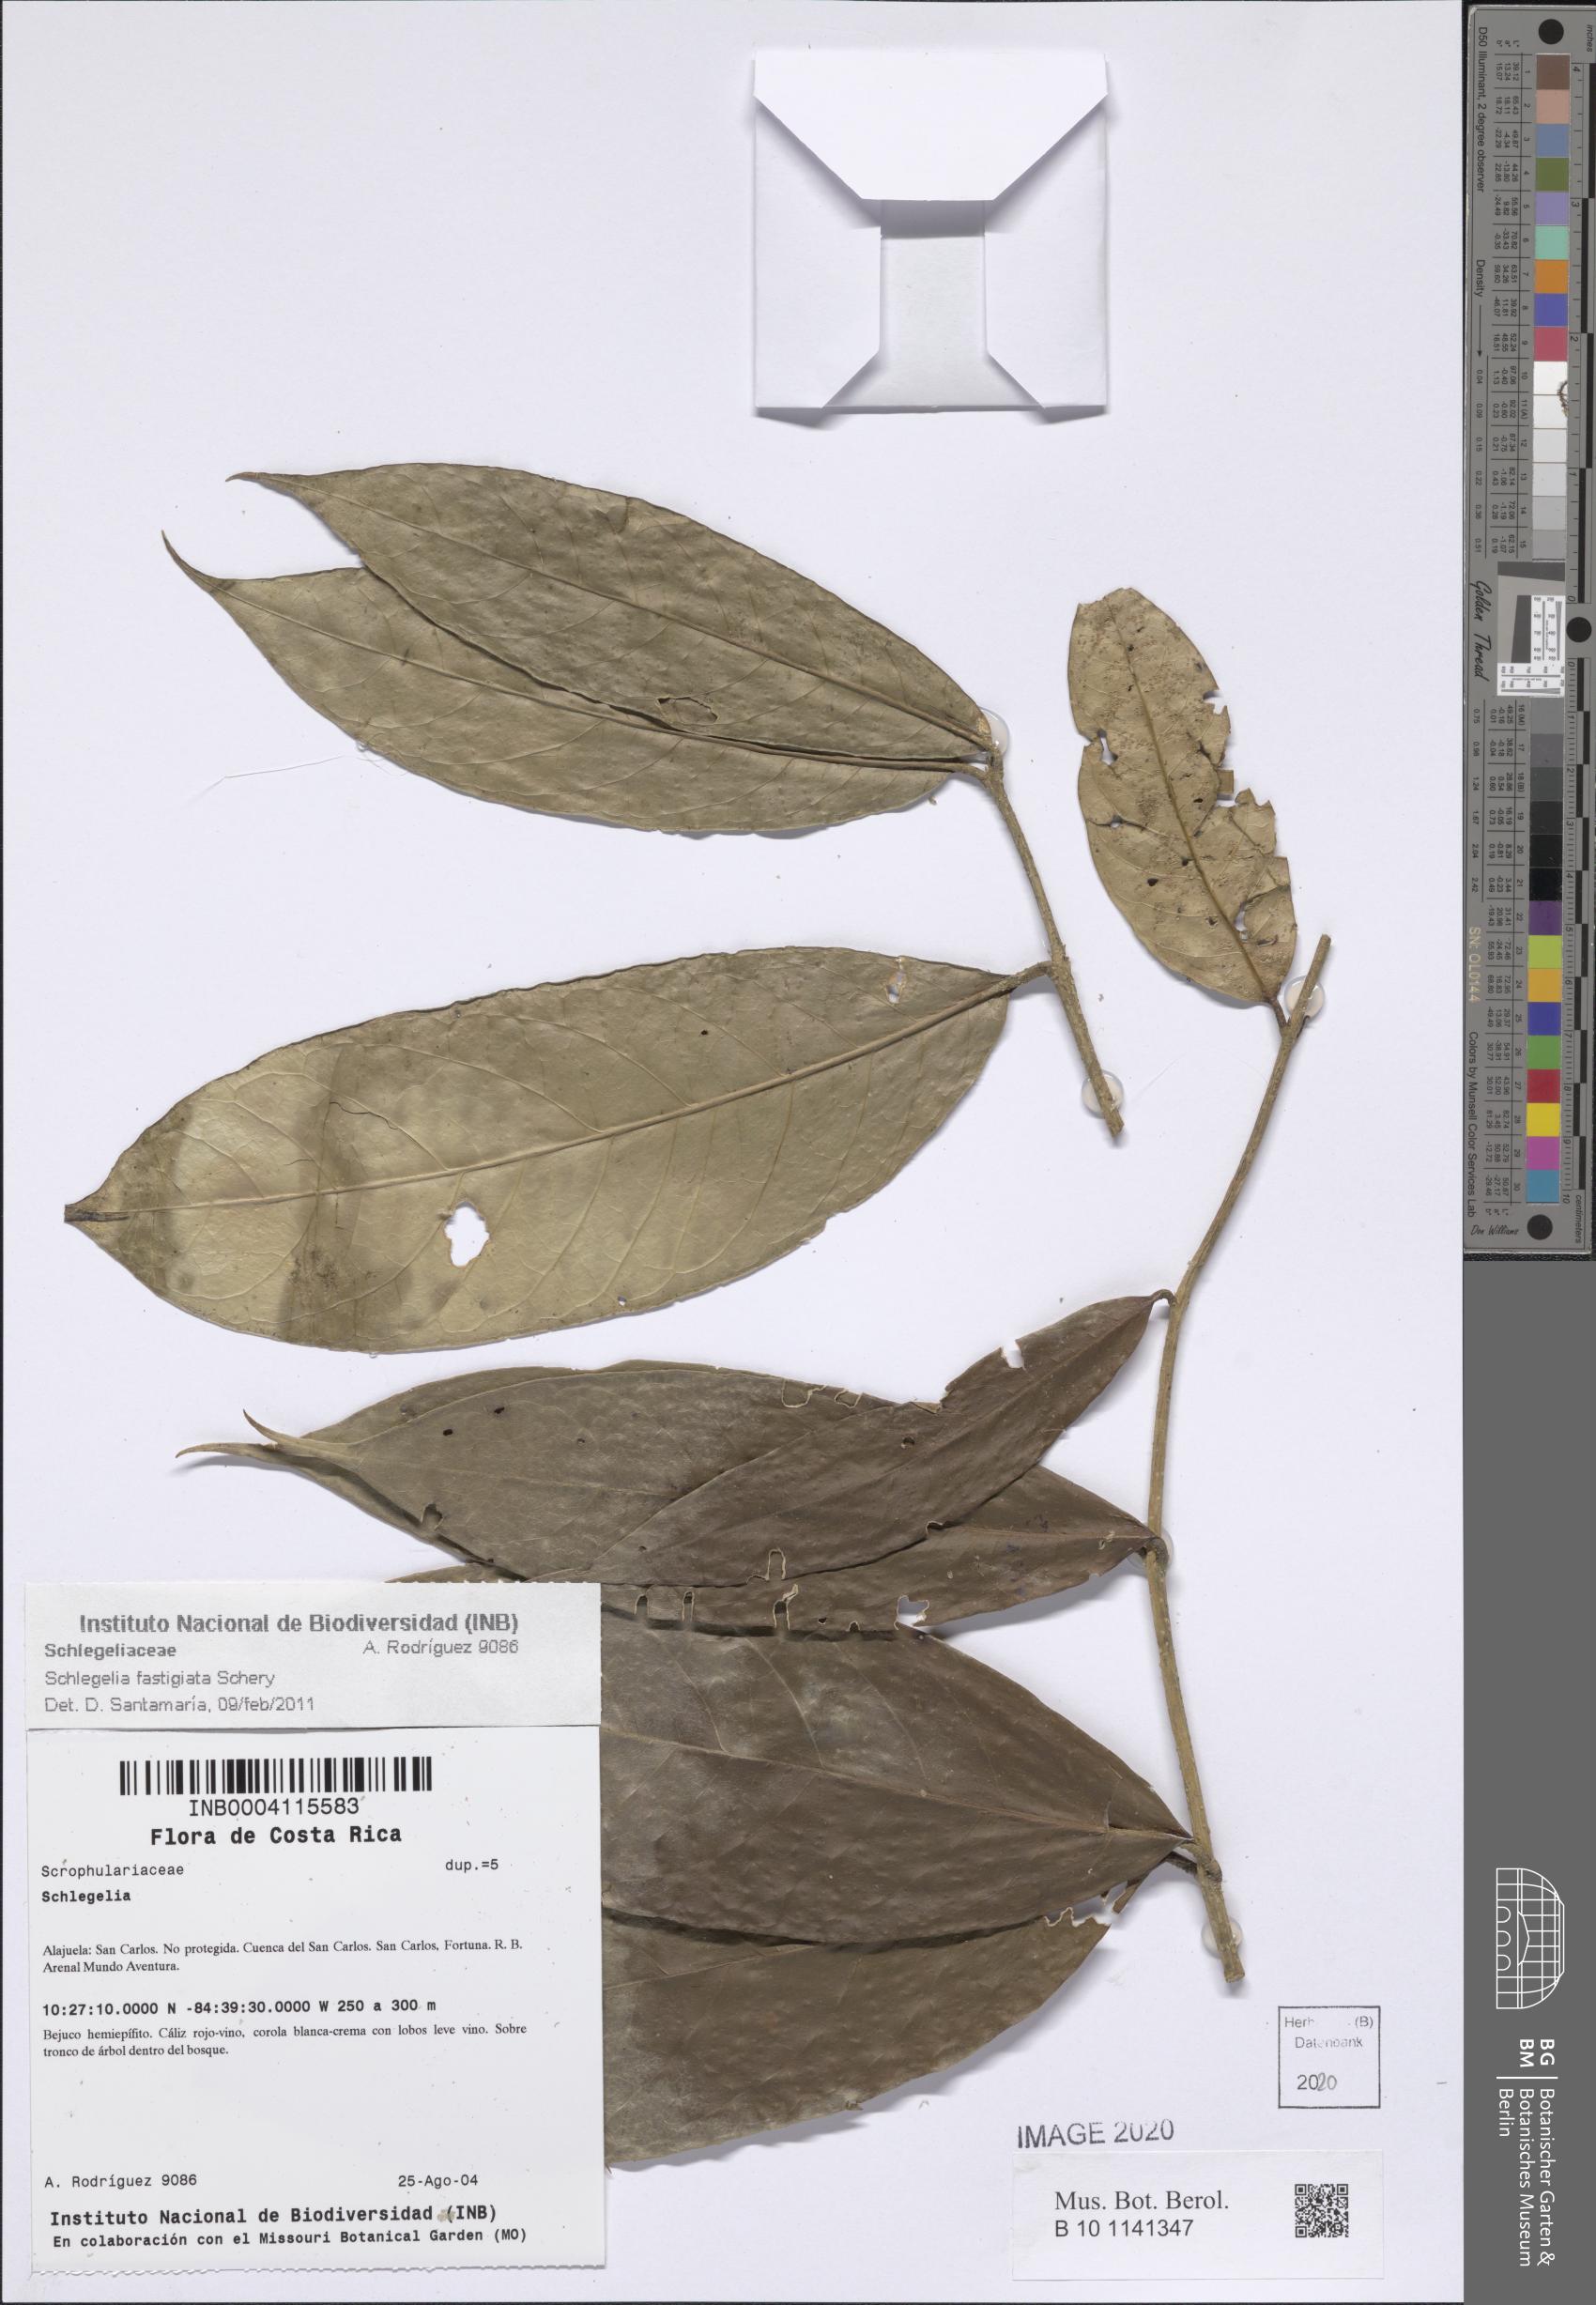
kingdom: Plantae
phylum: Tracheophyta
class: Magnoliopsida
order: Lamiales
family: Schlegeliaceae
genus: Schlegelia
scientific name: Schlegelia fastigiata
